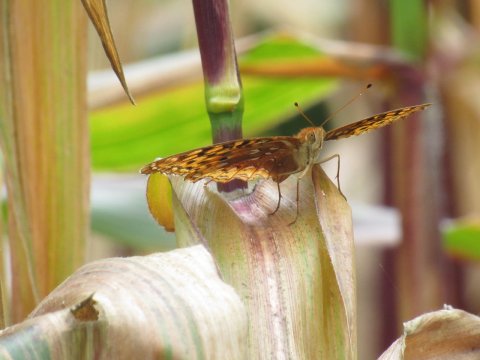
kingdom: Animalia
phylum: Arthropoda
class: Insecta
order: Lepidoptera
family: Nymphalidae
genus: Speyeria
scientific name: Speyeria cybele
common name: Great Spangled Fritillary
